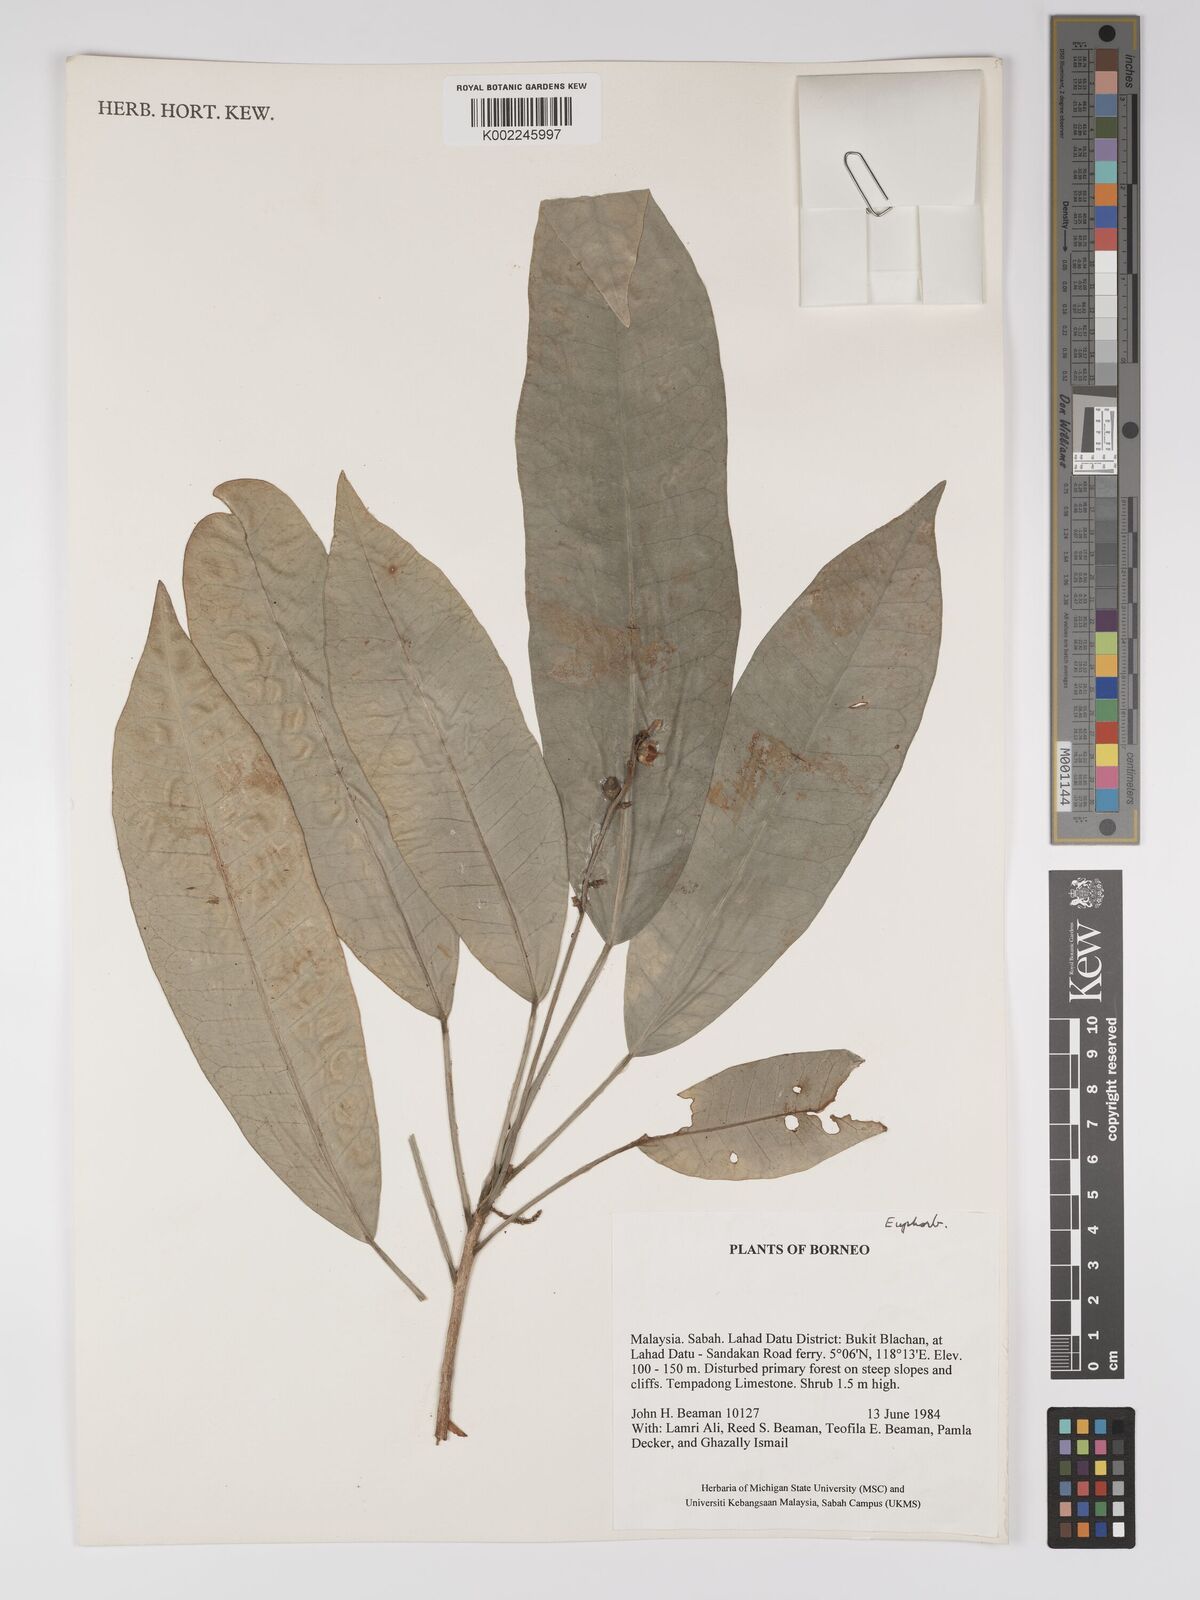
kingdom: Plantae
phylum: Tracheophyta
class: Magnoliopsida
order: Malpighiales
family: Euphorbiaceae
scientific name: Euphorbiaceae
